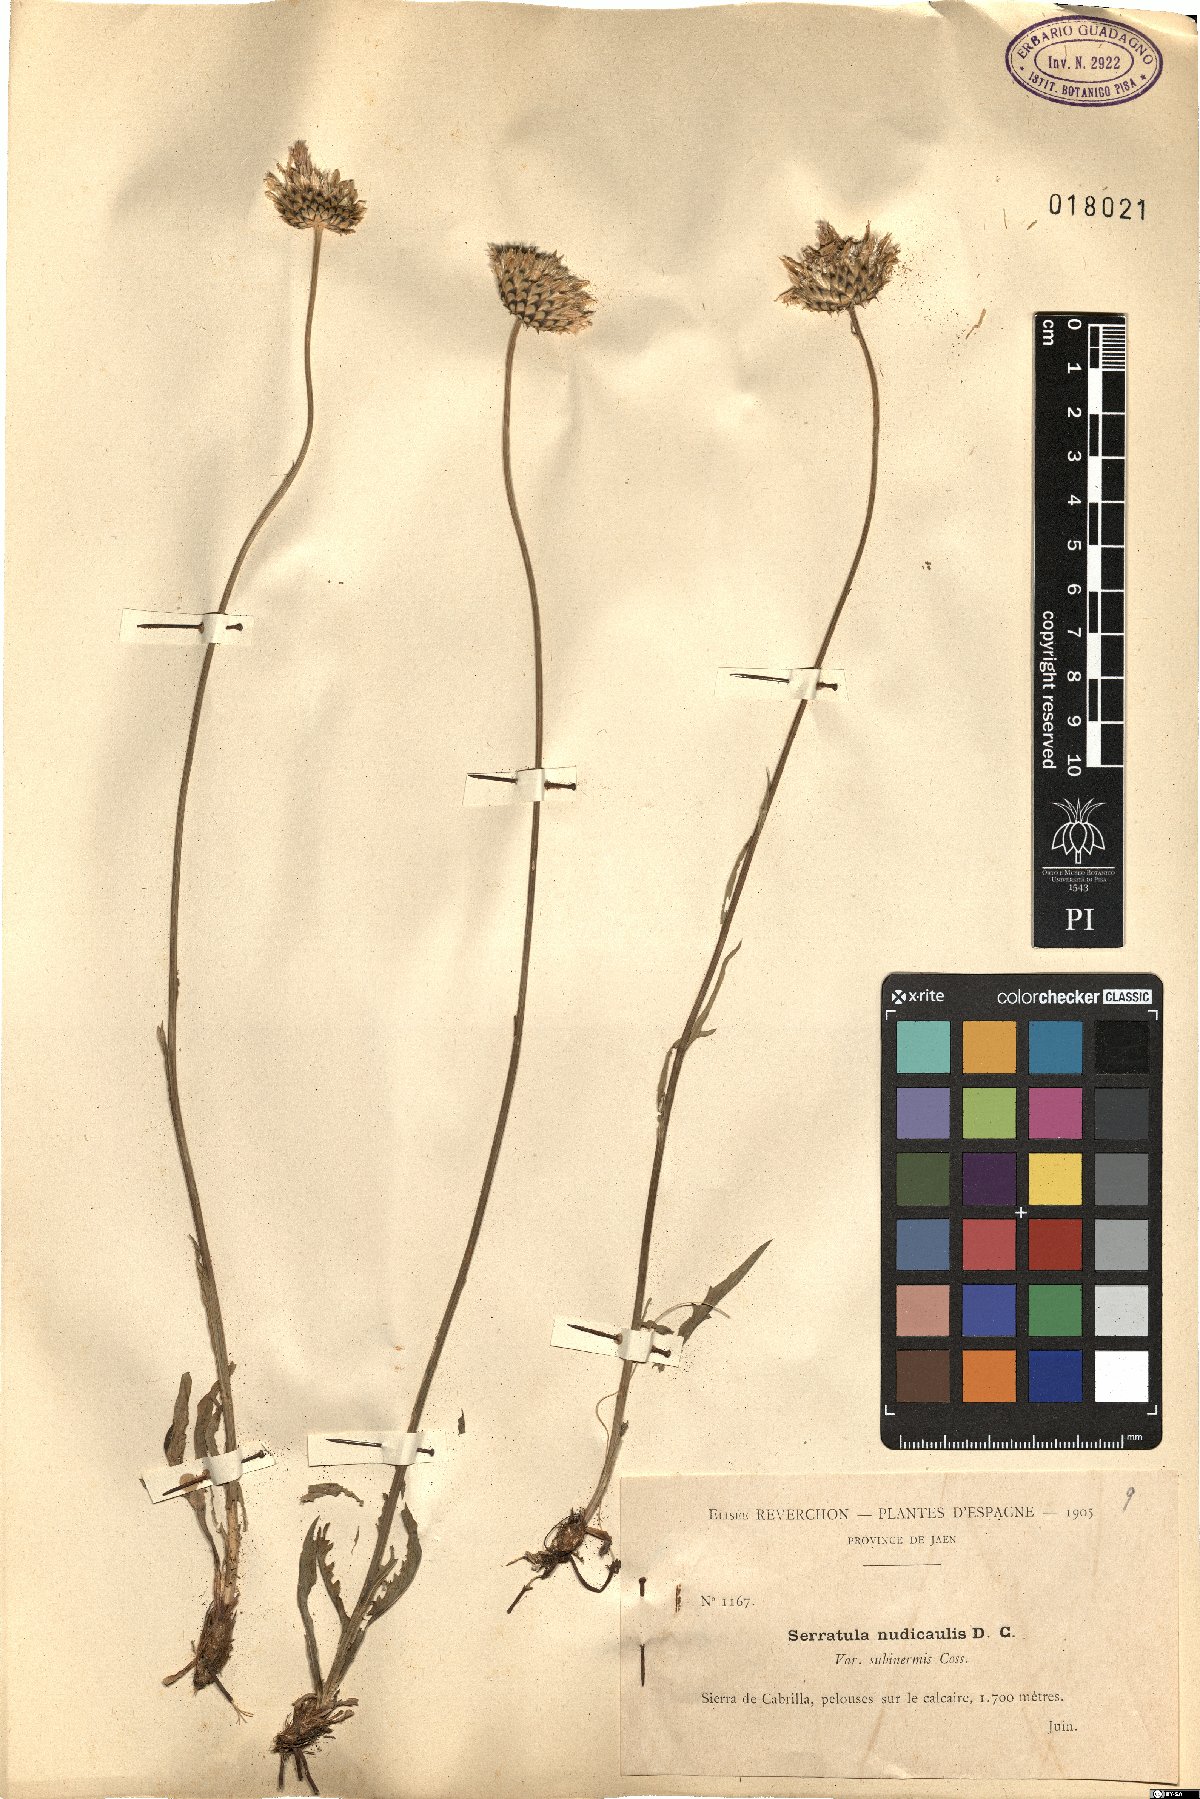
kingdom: Plantae
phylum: Tracheophyta
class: Magnoliopsida
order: Asterales
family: Asteraceae
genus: Klasea
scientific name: Klasea nudicaulis
